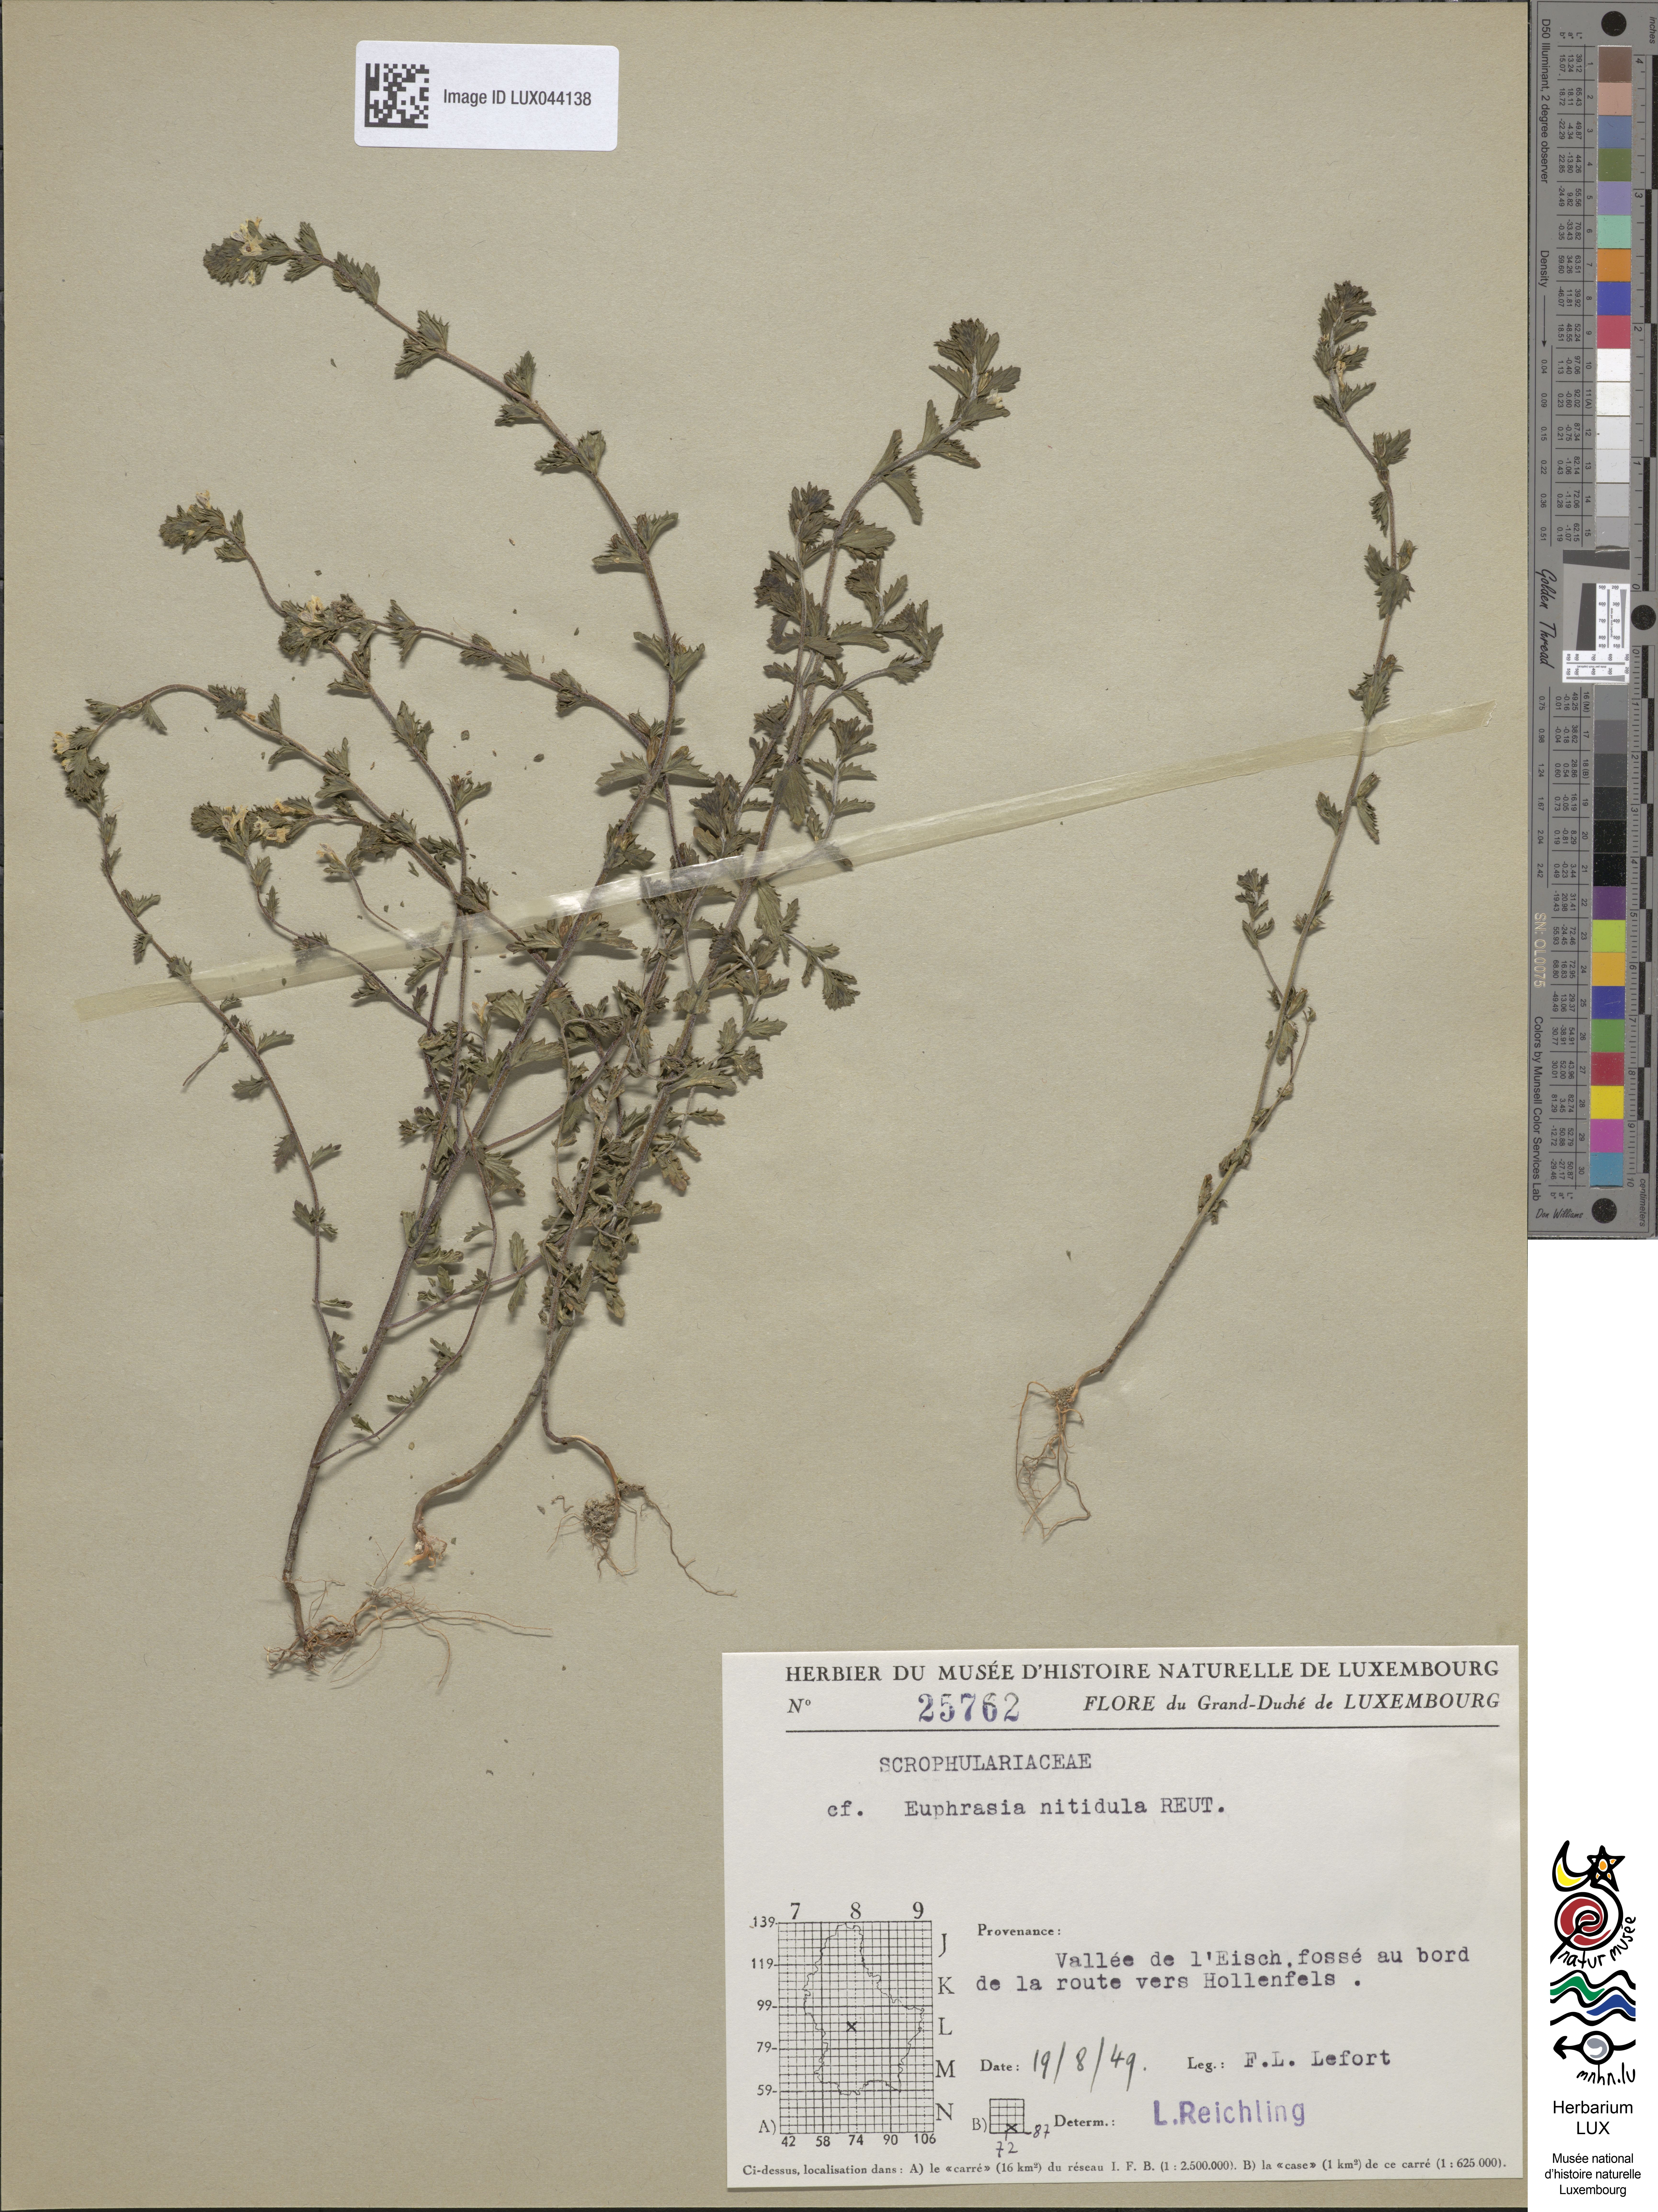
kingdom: Plantae
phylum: Tracheophyta
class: Magnoliopsida
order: Lamiales
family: Orobanchaceae
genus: Euphrasia
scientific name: Euphrasia nemorosa
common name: Common eyebright
